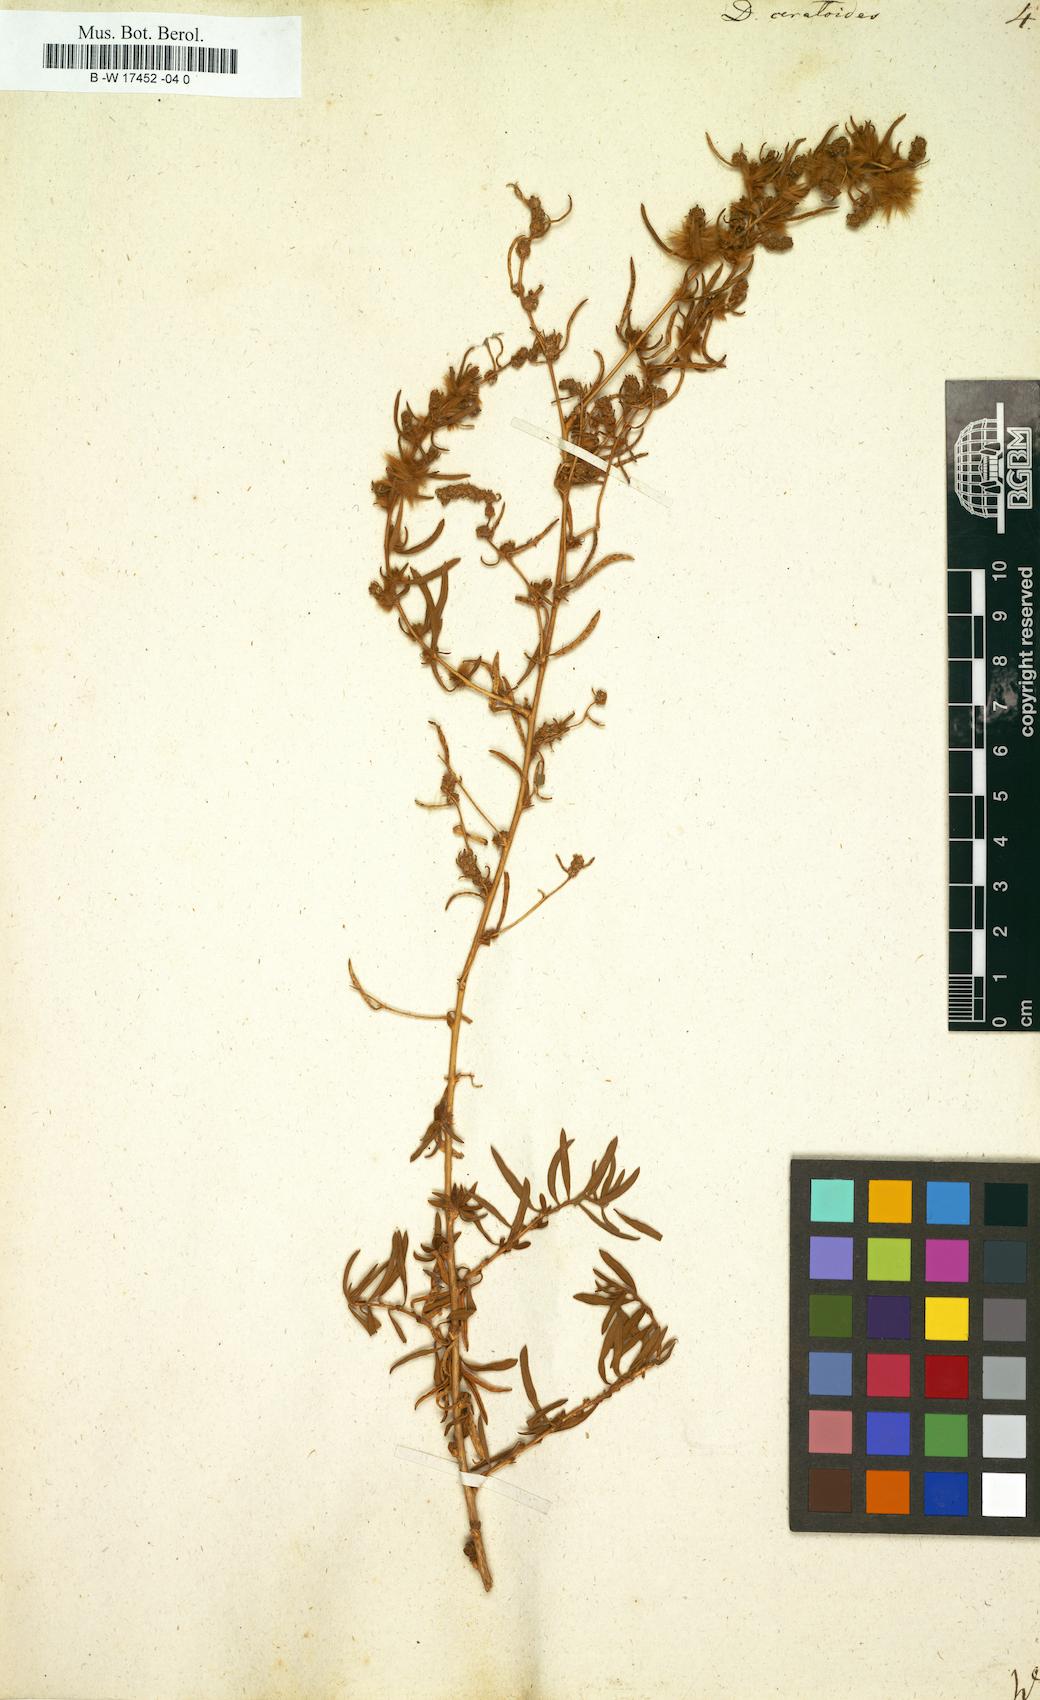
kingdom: Plantae
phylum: Tracheophyta
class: Magnoliopsida
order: Caryophyllales
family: Amaranthaceae
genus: Krascheninnikovia
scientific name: Krascheninnikovia ceratoides
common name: Pamirian winterfat
